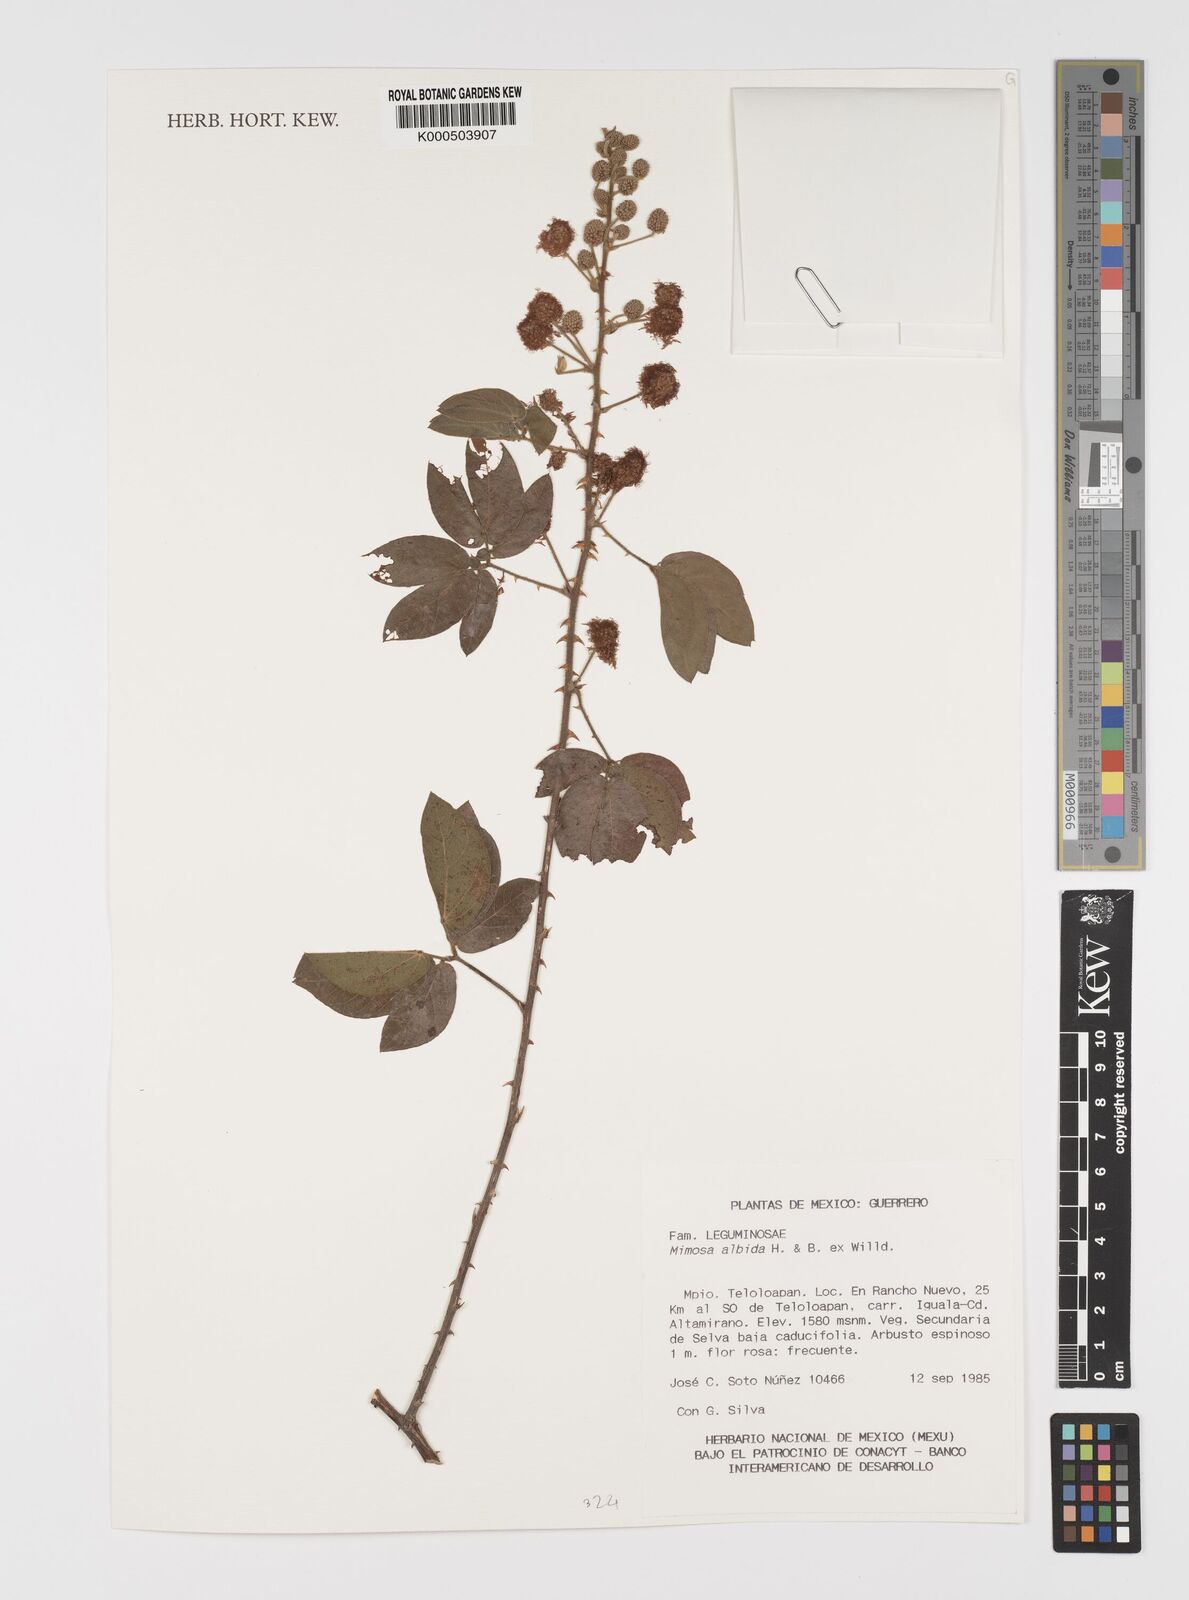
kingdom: Plantae
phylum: Tracheophyta
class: Magnoliopsida
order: Fabales
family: Fabaceae
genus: Mimosa
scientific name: Mimosa albida
